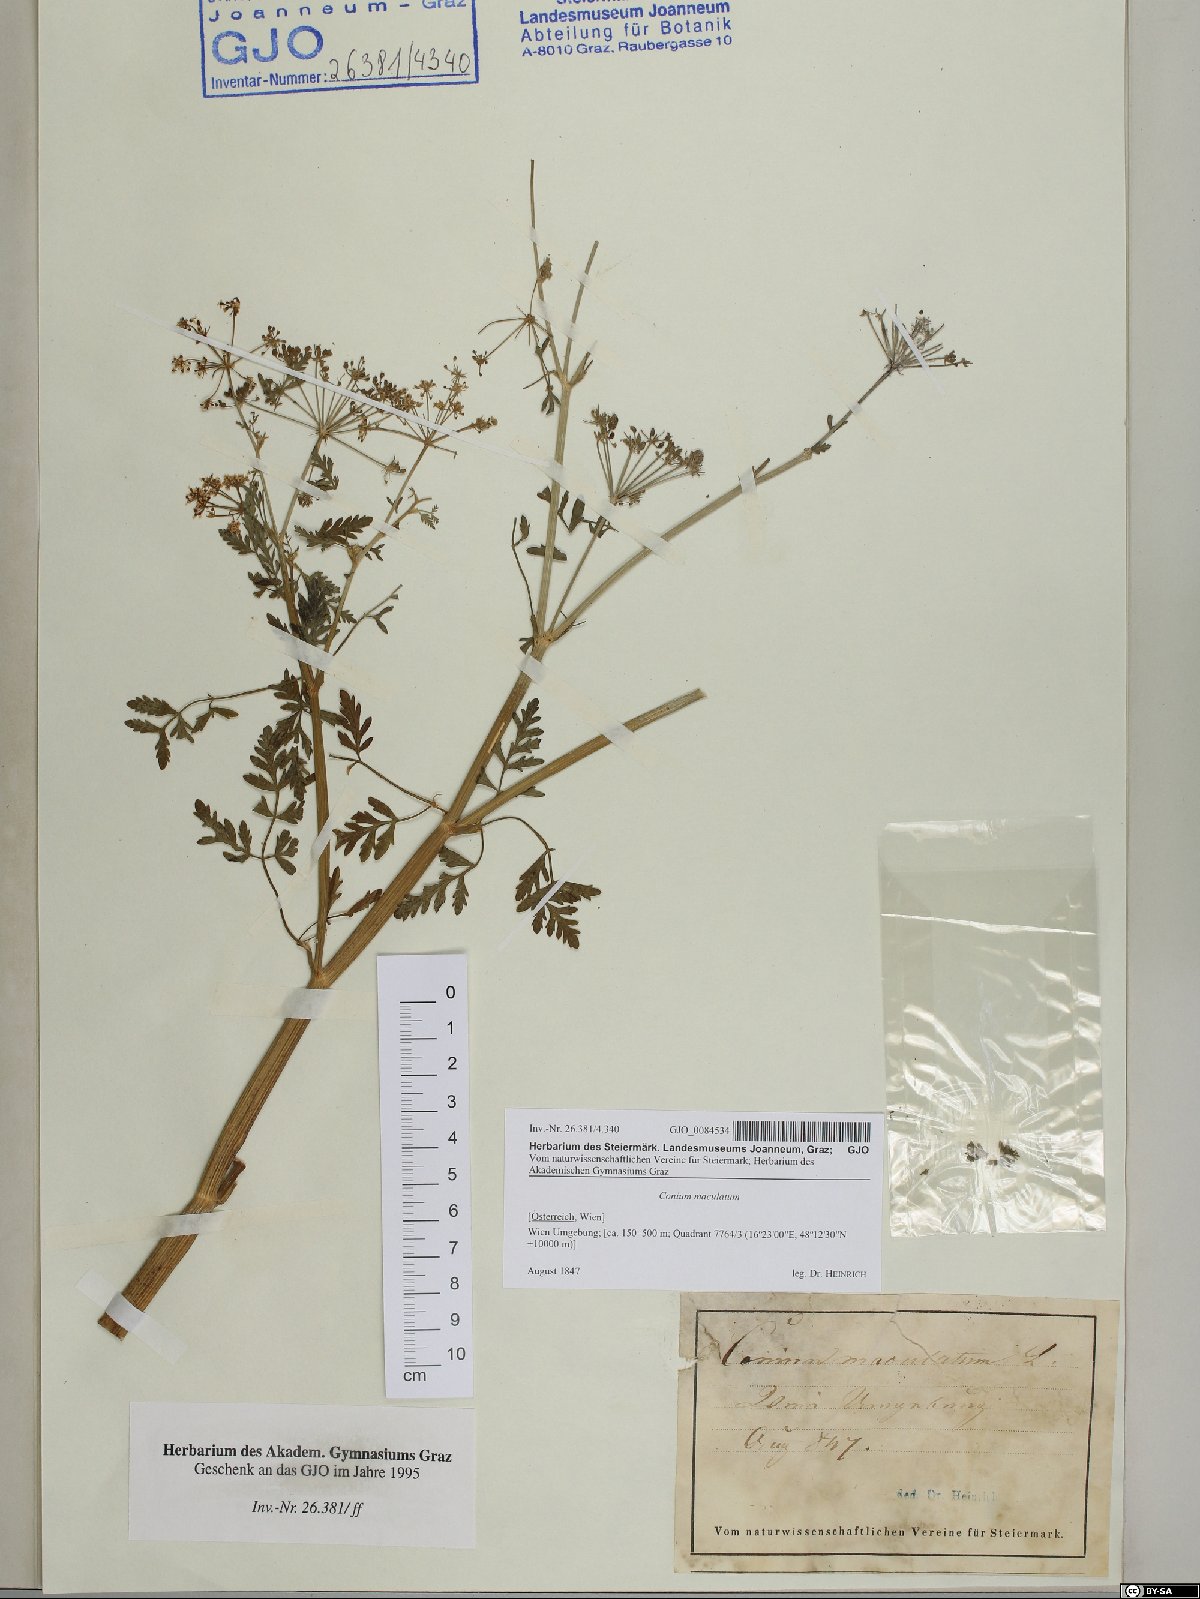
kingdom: Plantae
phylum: Tracheophyta
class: Magnoliopsida
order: Apiales
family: Apiaceae
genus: Conium
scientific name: Conium maculatum
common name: Hemlock
